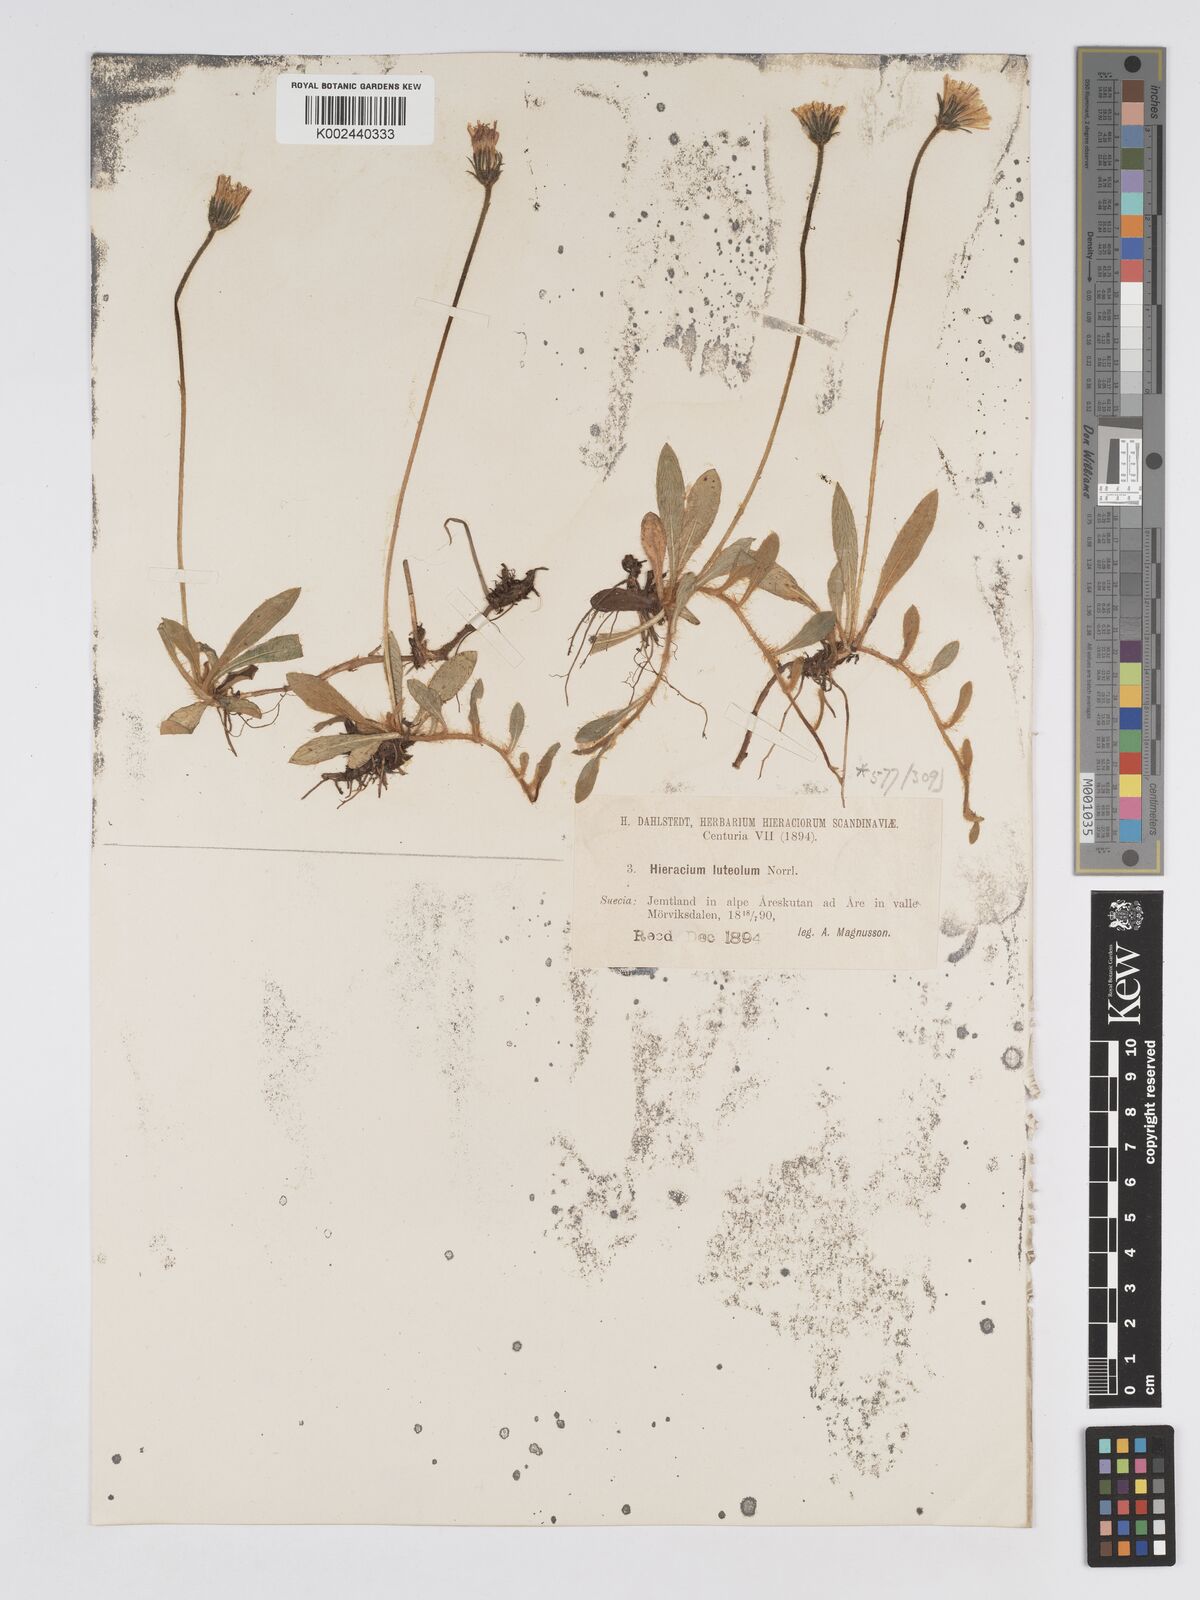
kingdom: Plantae
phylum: Tracheophyta
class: Magnoliopsida
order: Asterales
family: Asteraceae
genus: Pilosella
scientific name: Pilosella officinarum
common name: Mouse-ear hawkweed
